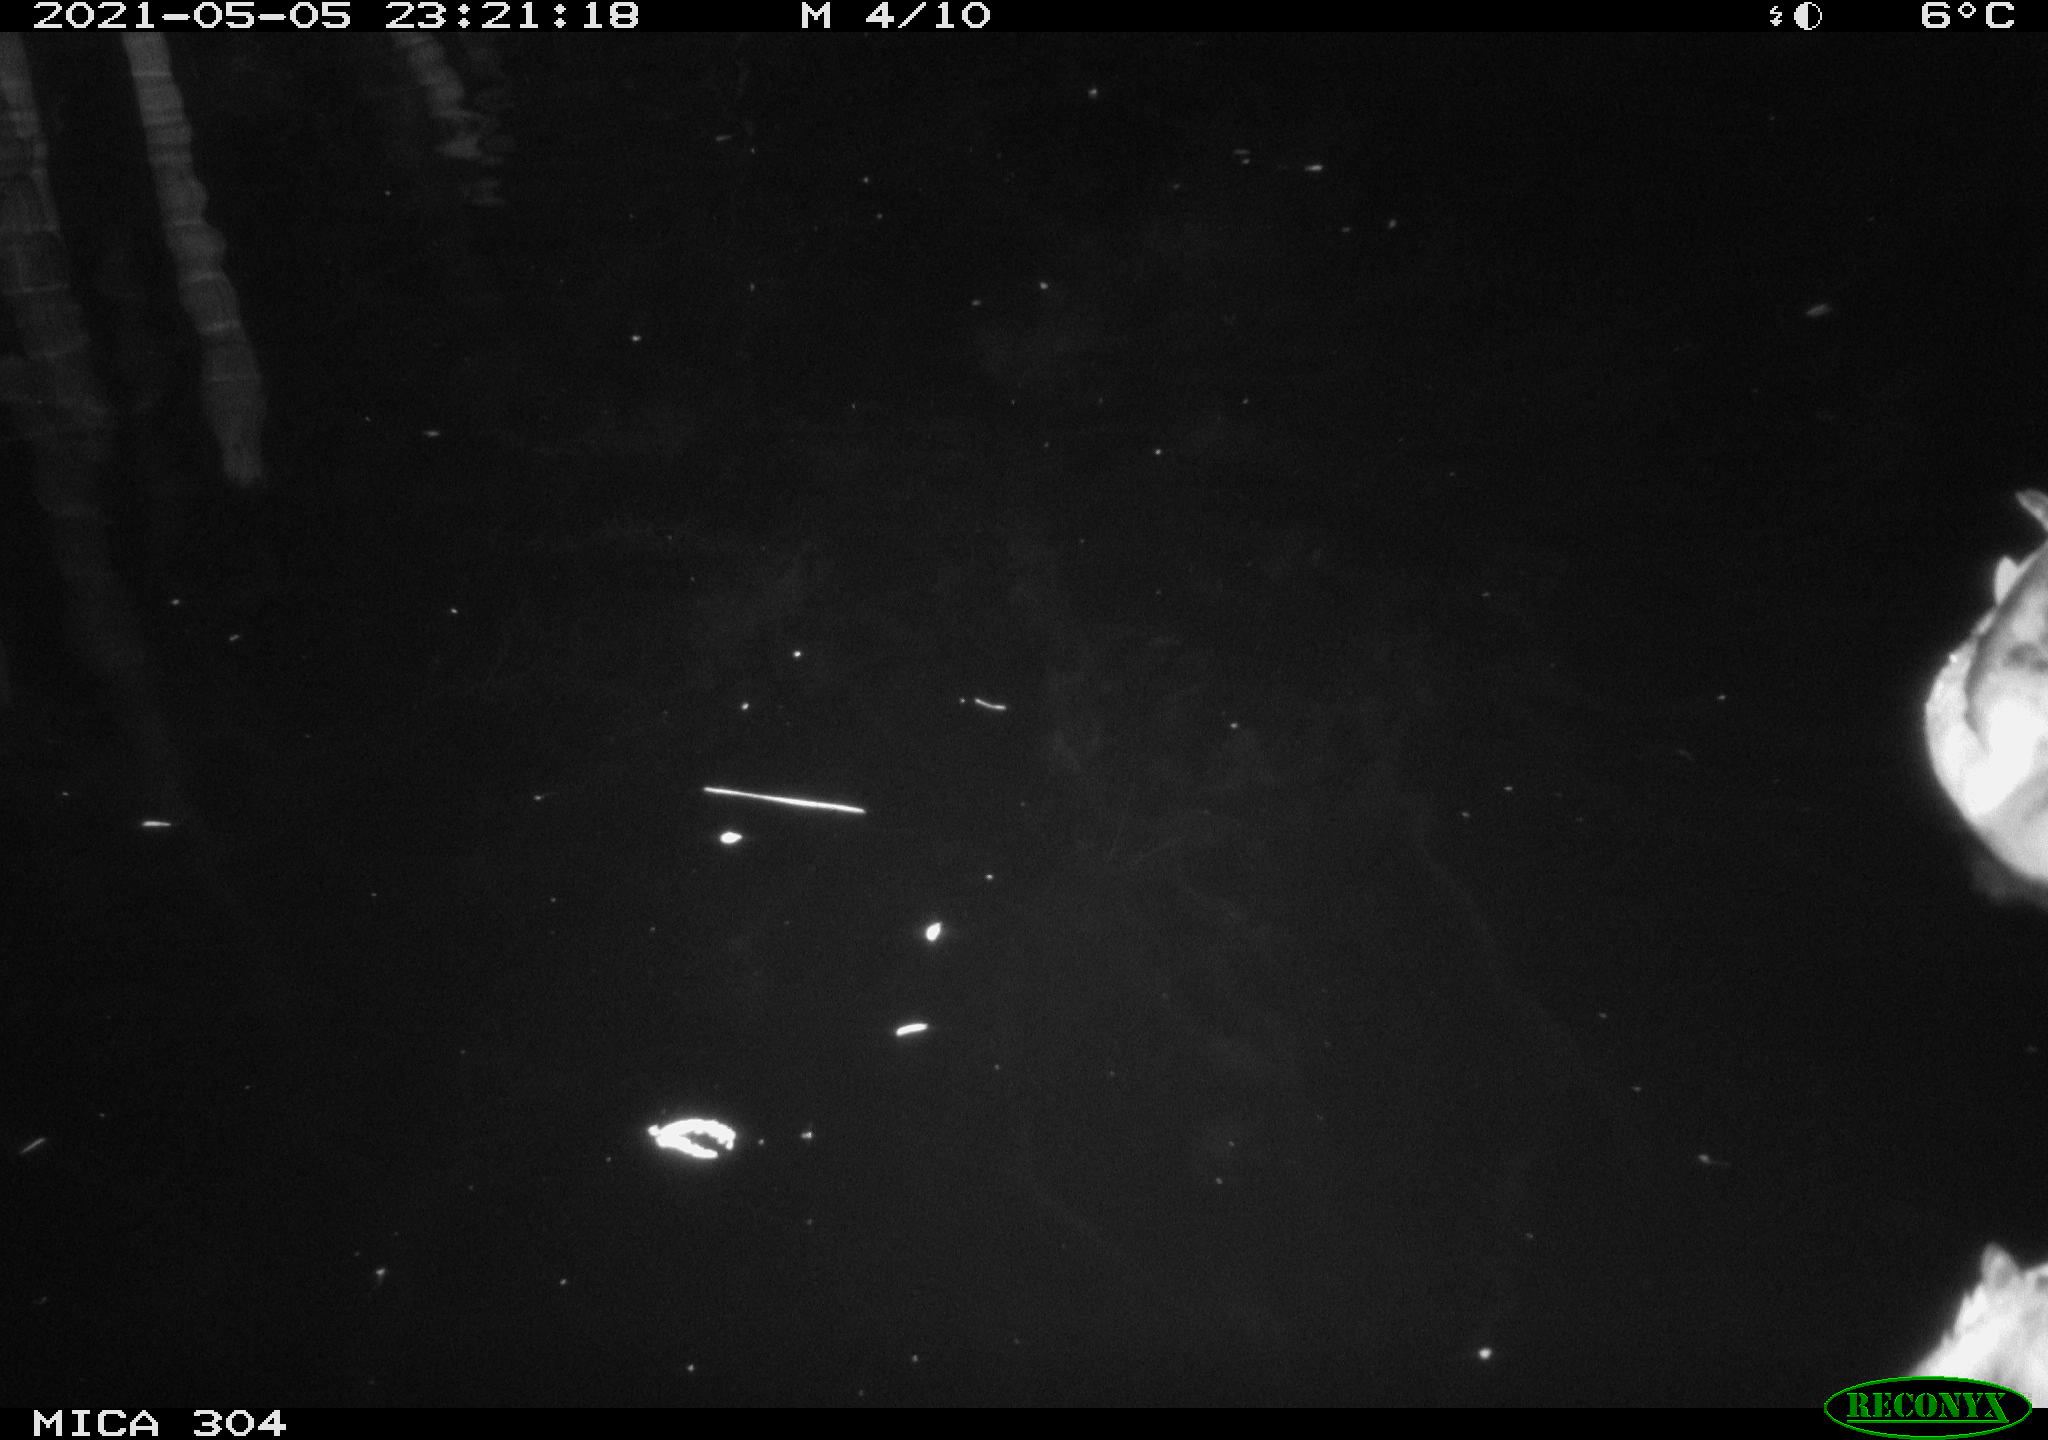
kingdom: Animalia
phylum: Chordata
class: Aves
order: Anseriformes
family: Anatidae
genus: Anas
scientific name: Anas platyrhynchos
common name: Mallard
